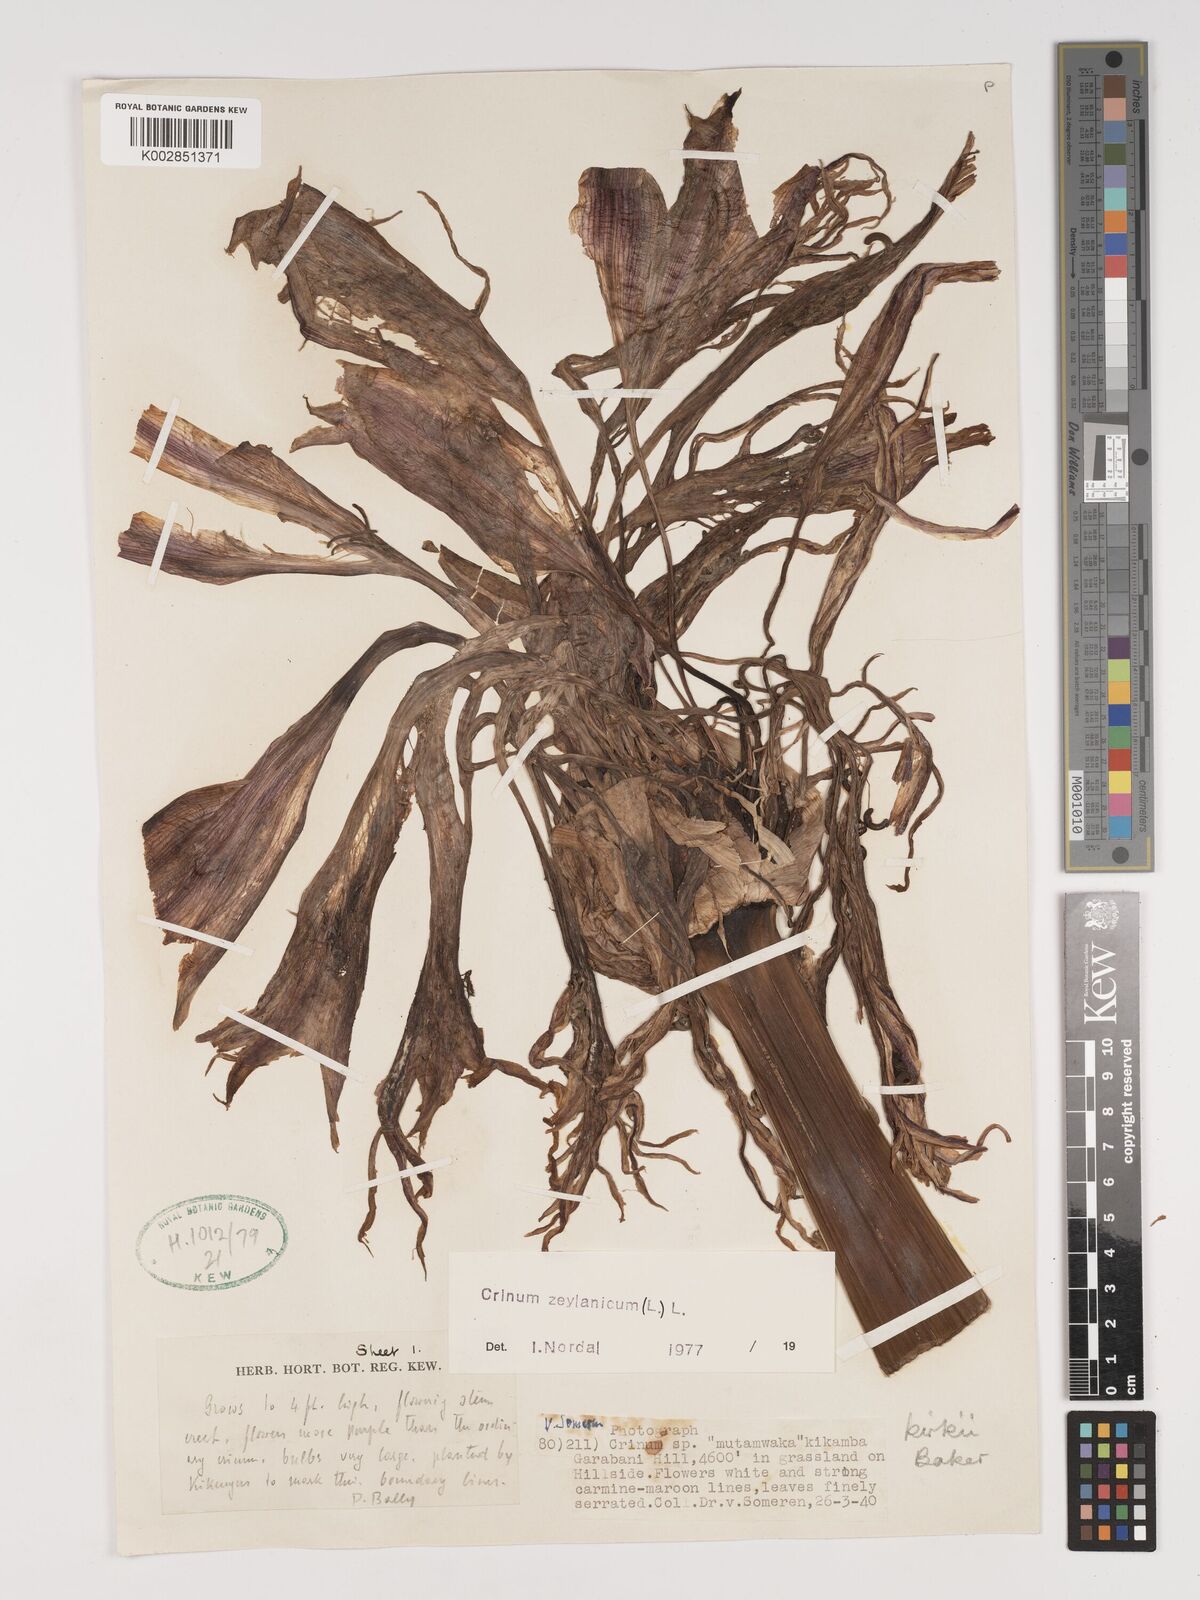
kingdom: Plantae
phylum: Tracheophyta
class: Liliopsida
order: Asparagales
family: Amaryllidaceae
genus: Crinum
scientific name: Crinum kirkii
